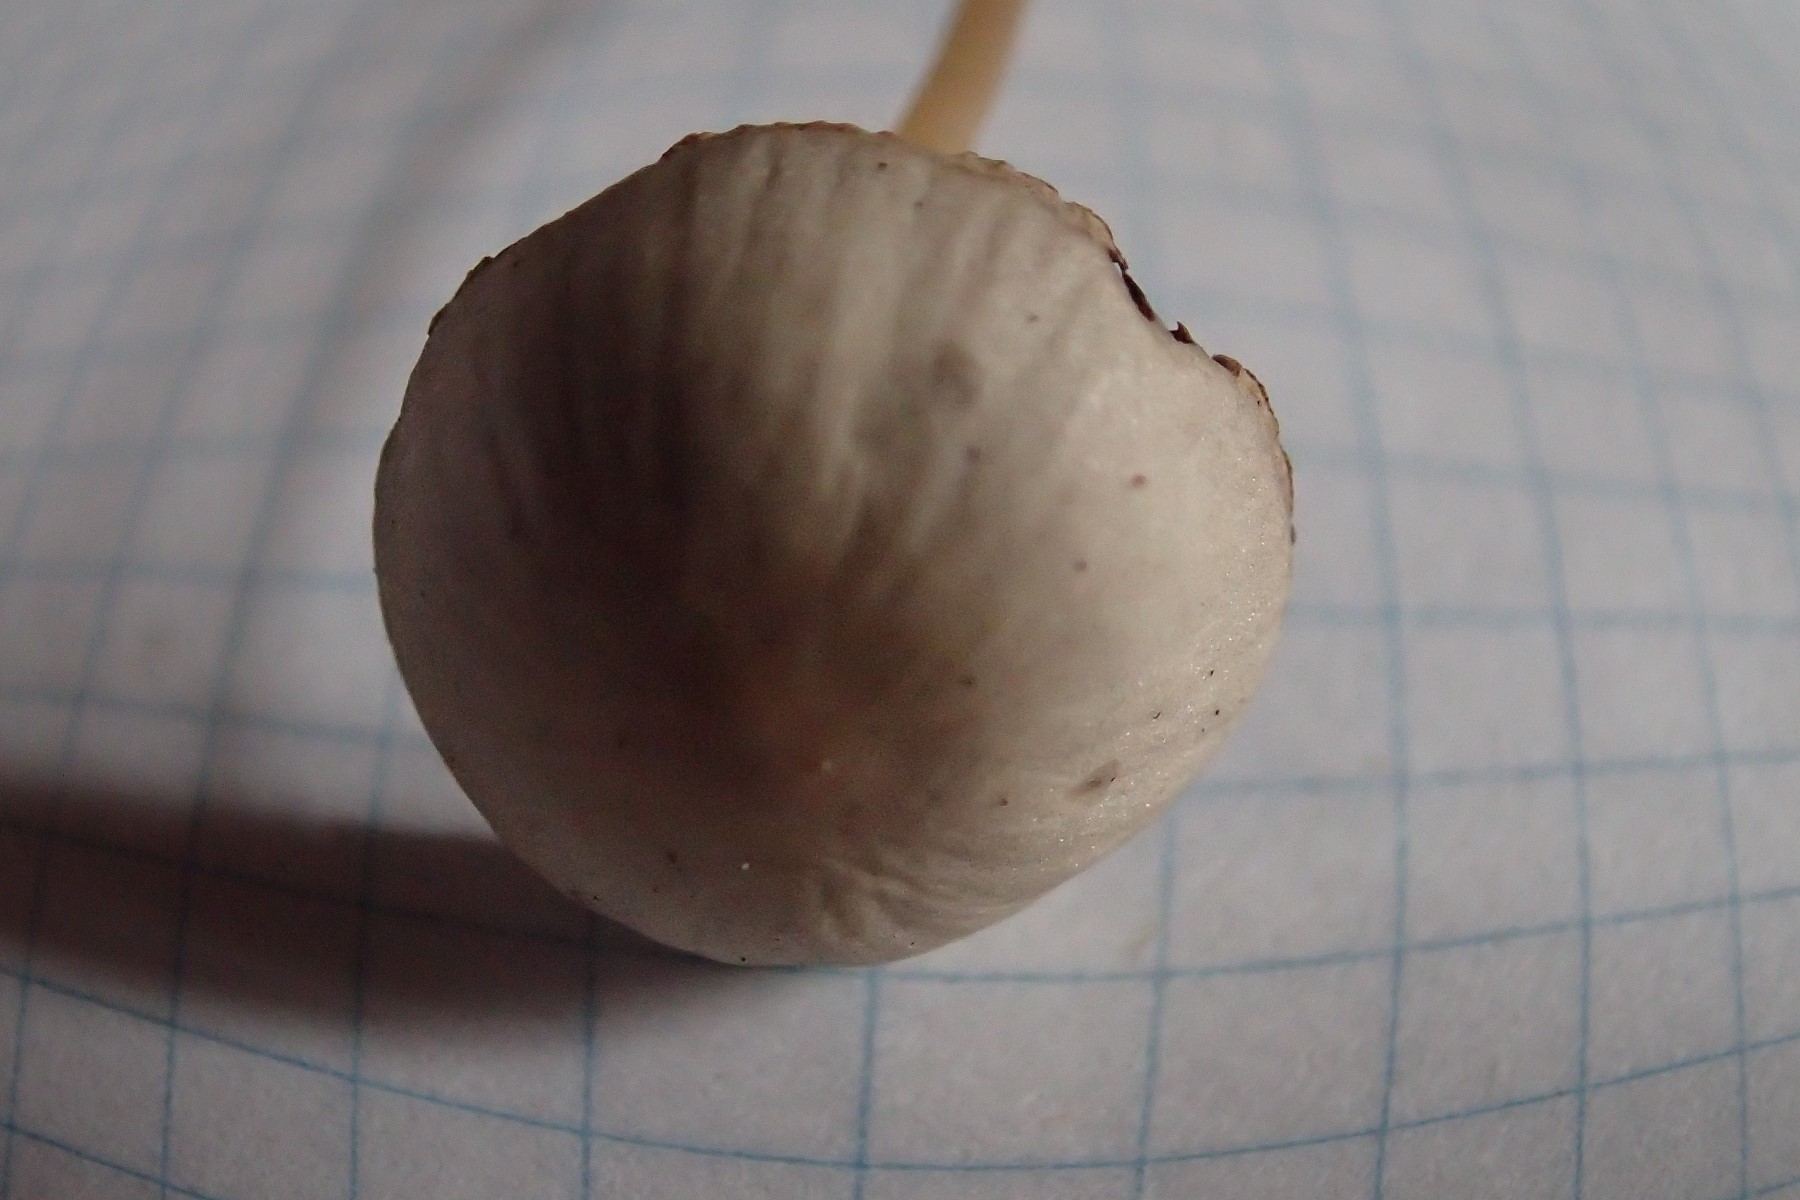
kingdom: Fungi
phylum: Basidiomycota
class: Agaricomycetes
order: Agaricales
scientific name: Agaricales
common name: champignonordenen
